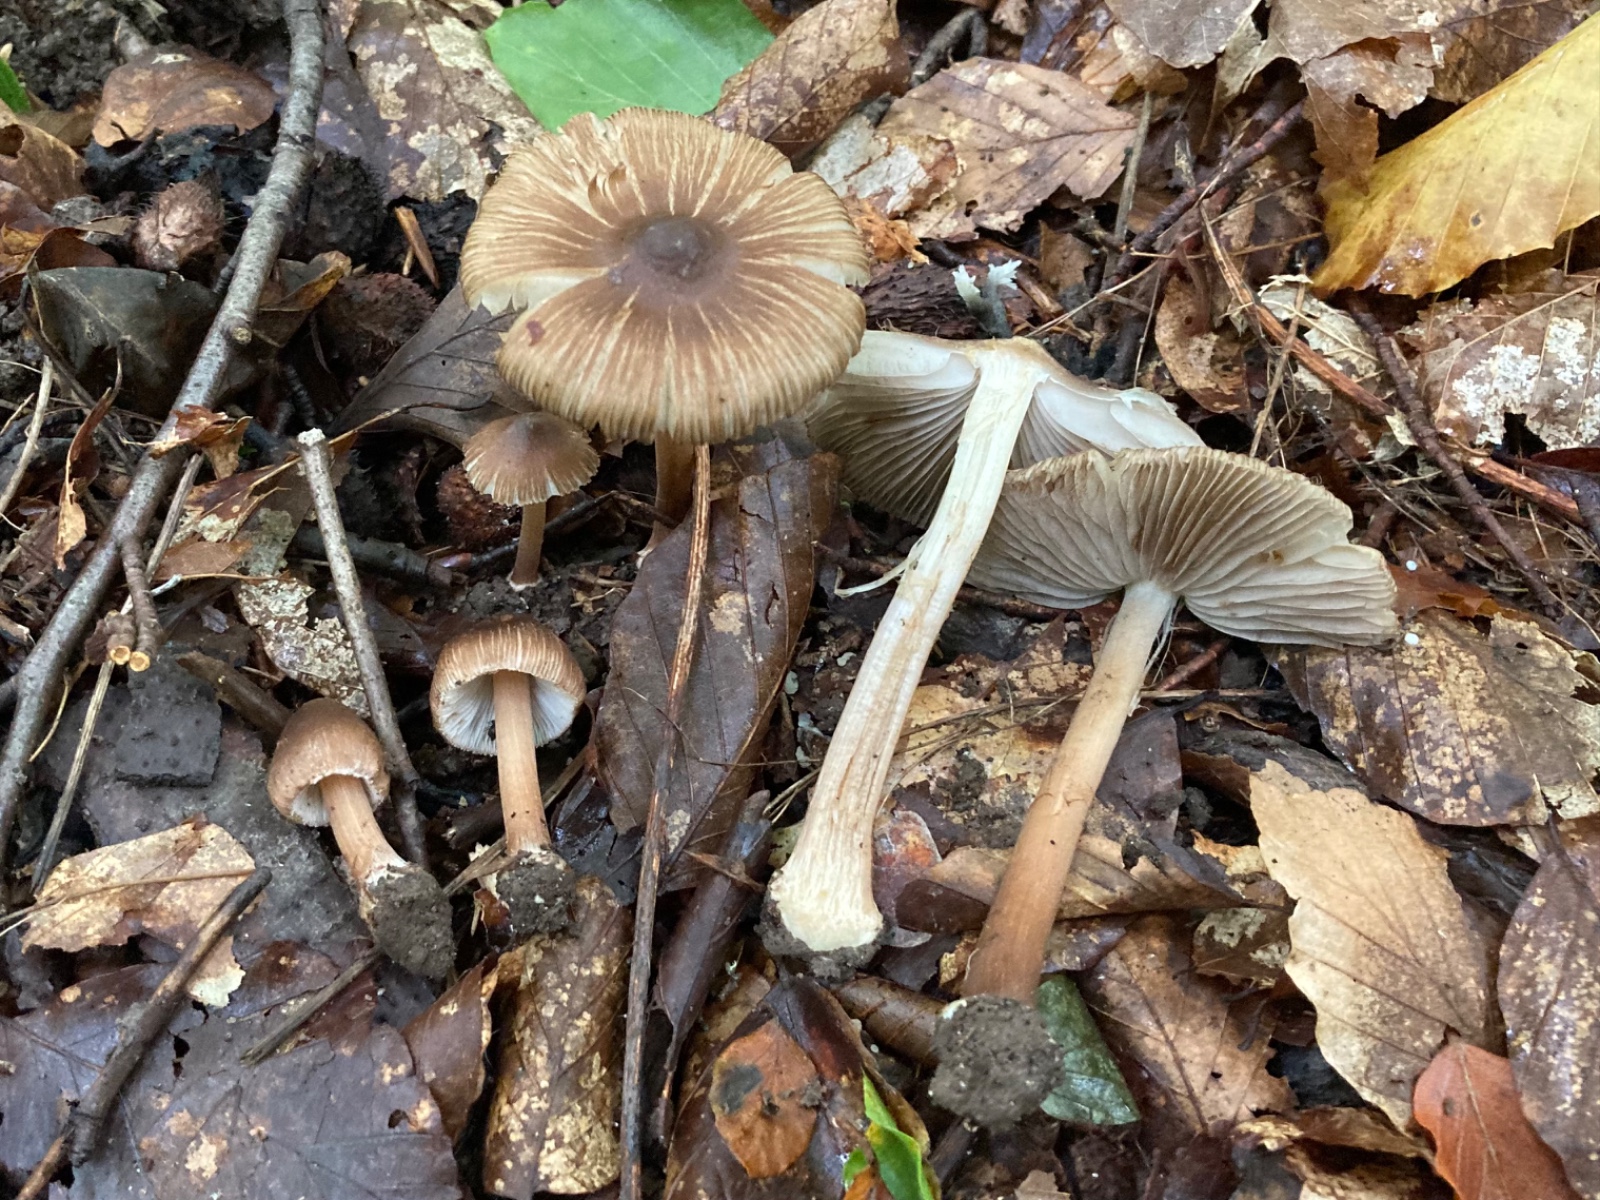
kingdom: Fungi
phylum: Basidiomycota
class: Agaricomycetes
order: Agaricales
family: Inocybaceae
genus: Inocybe
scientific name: Inocybe
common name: trævlhat
